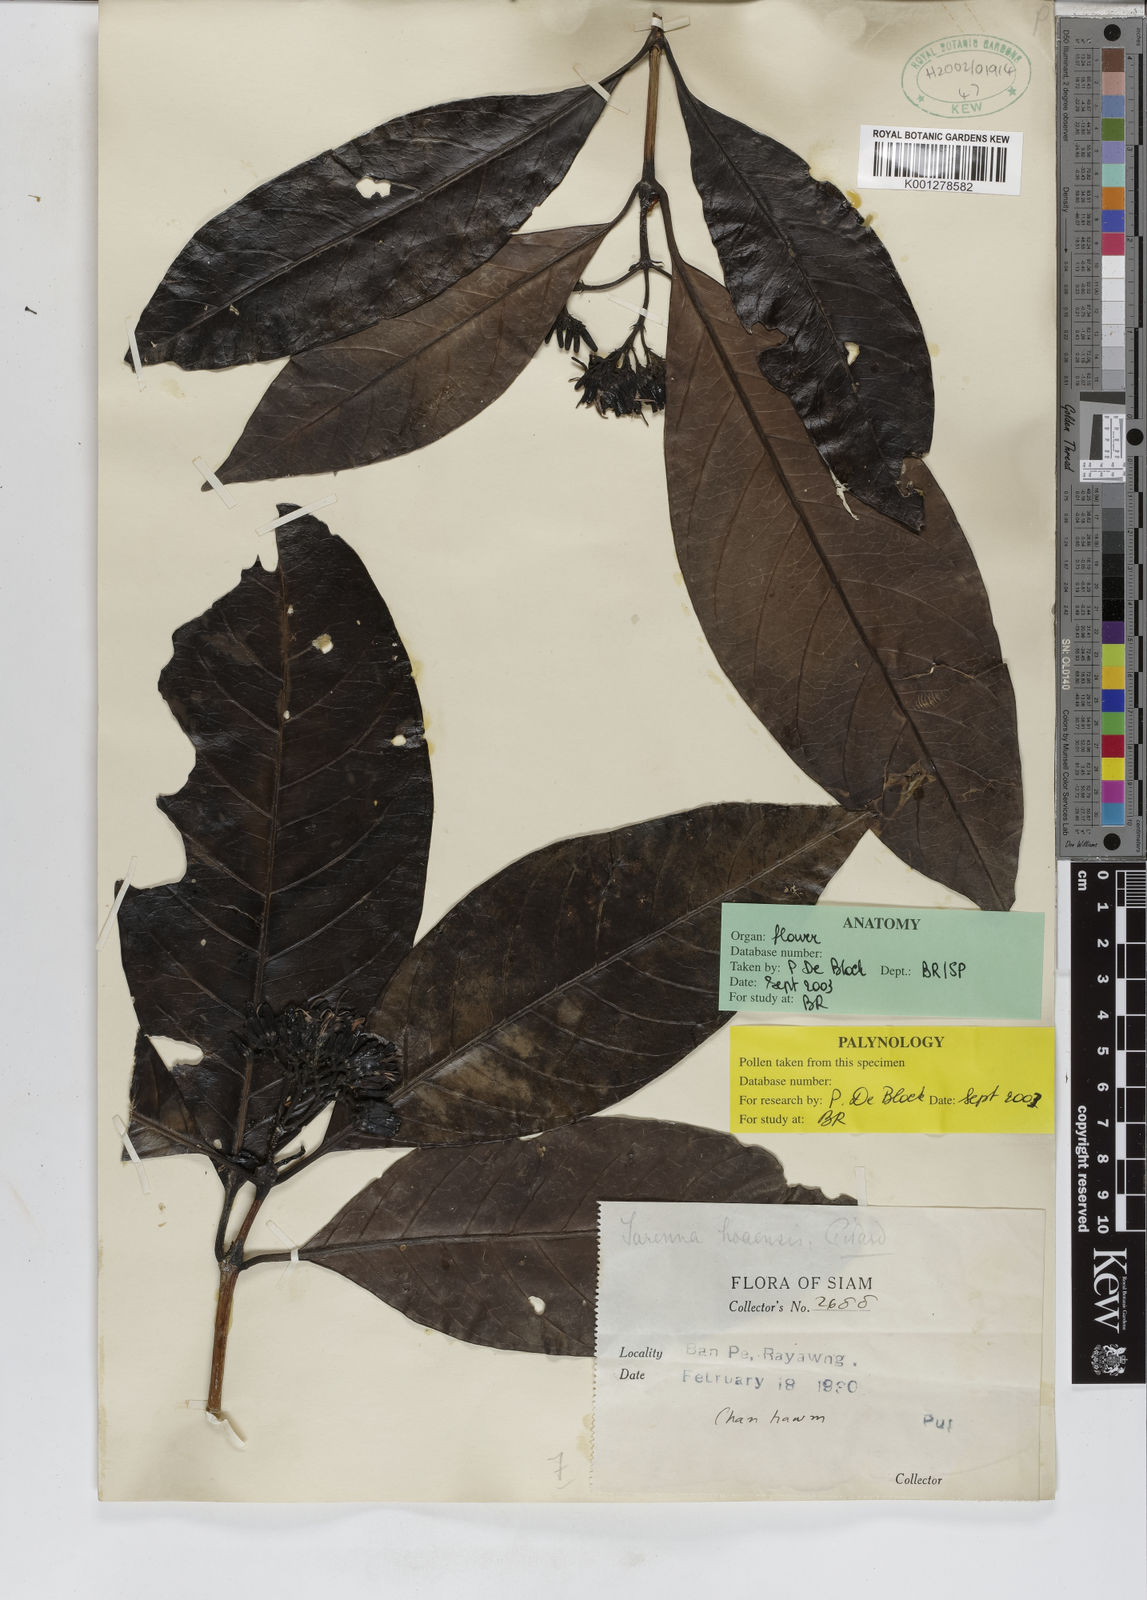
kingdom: Plantae
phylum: Tracheophyta
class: Magnoliopsida
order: Gentianales
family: Rubiaceae
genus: Tarenna
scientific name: Tarenna hoaensis
